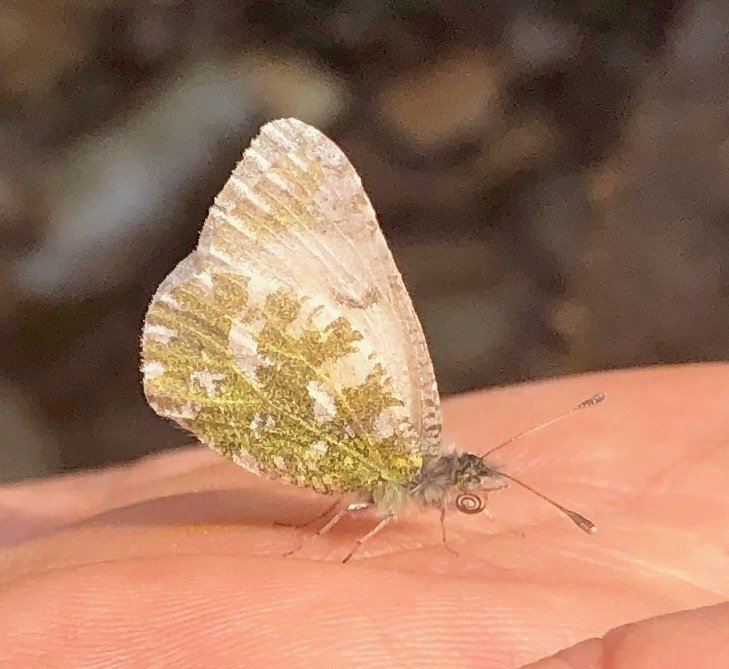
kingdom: Animalia
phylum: Arthropoda
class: Insecta
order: Lepidoptera
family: Pieridae
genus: Euchloe
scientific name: Euchloe creusa
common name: Northern Marble
